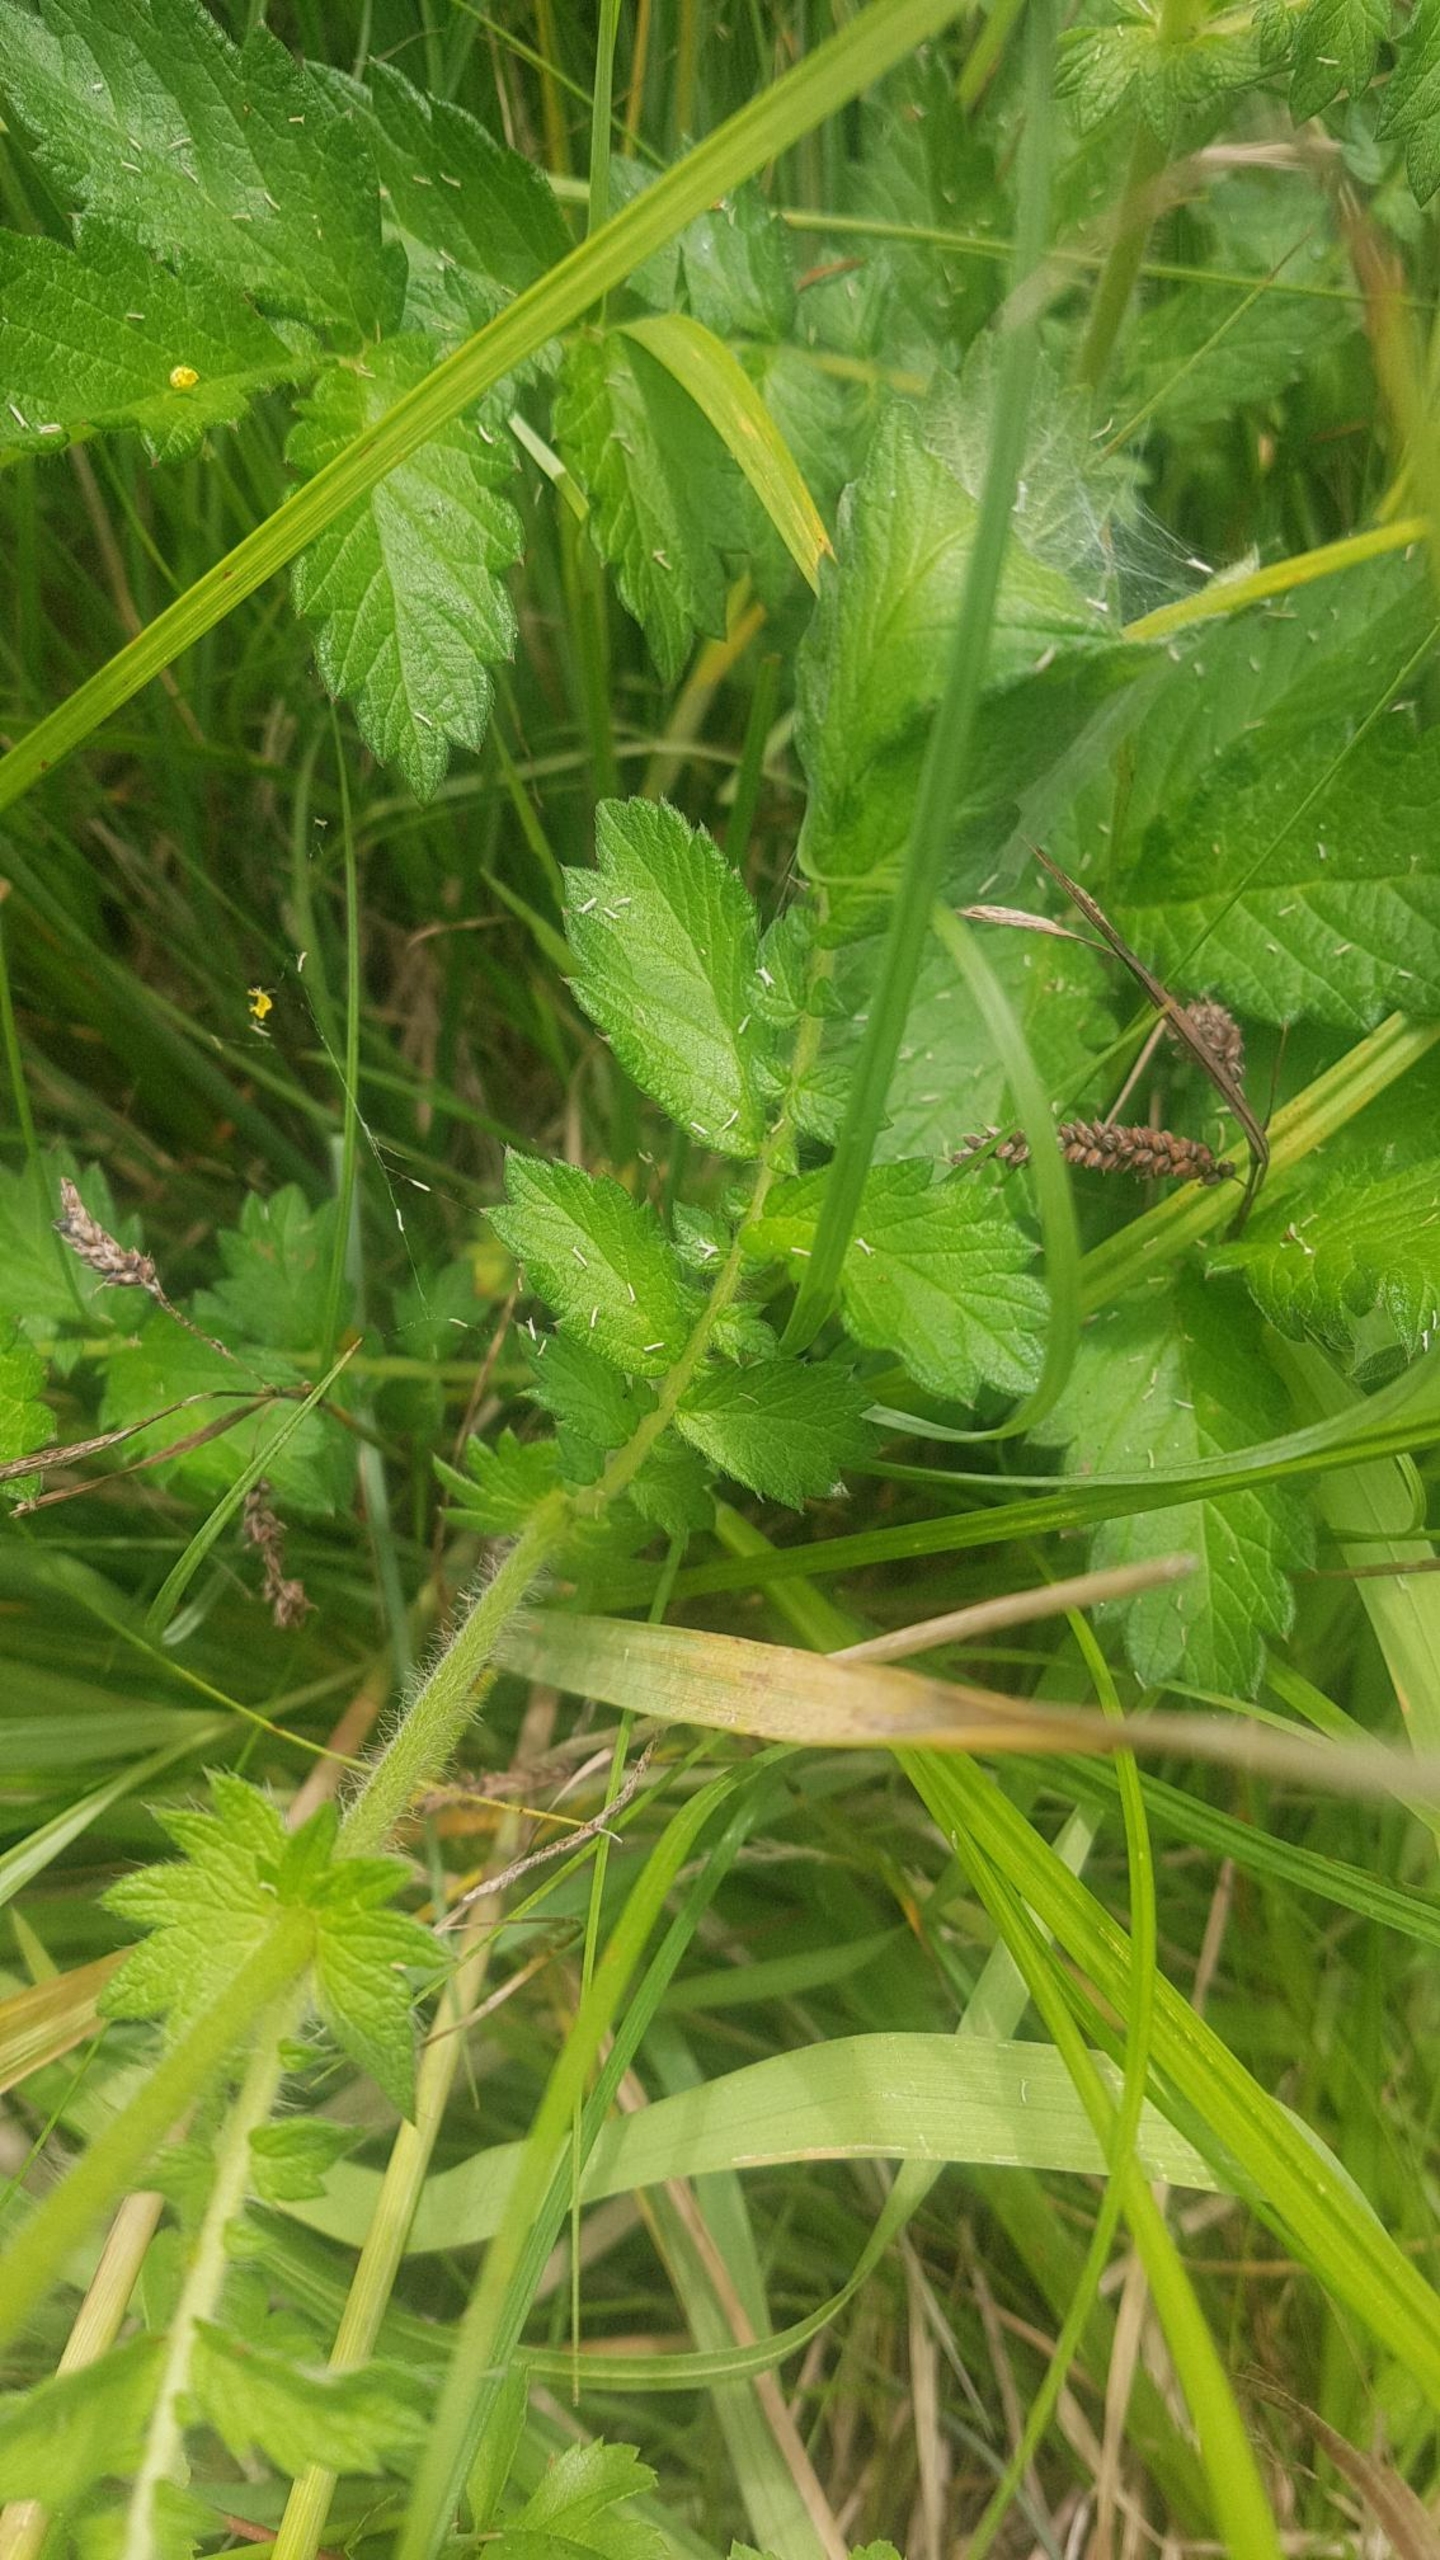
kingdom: Plantae
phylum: Tracheophyta
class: Magnoliopsida
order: Rosales
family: Rosaceae
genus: Agrimonia
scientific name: Agrimonia eupatoria
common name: Almindelig agermåne
